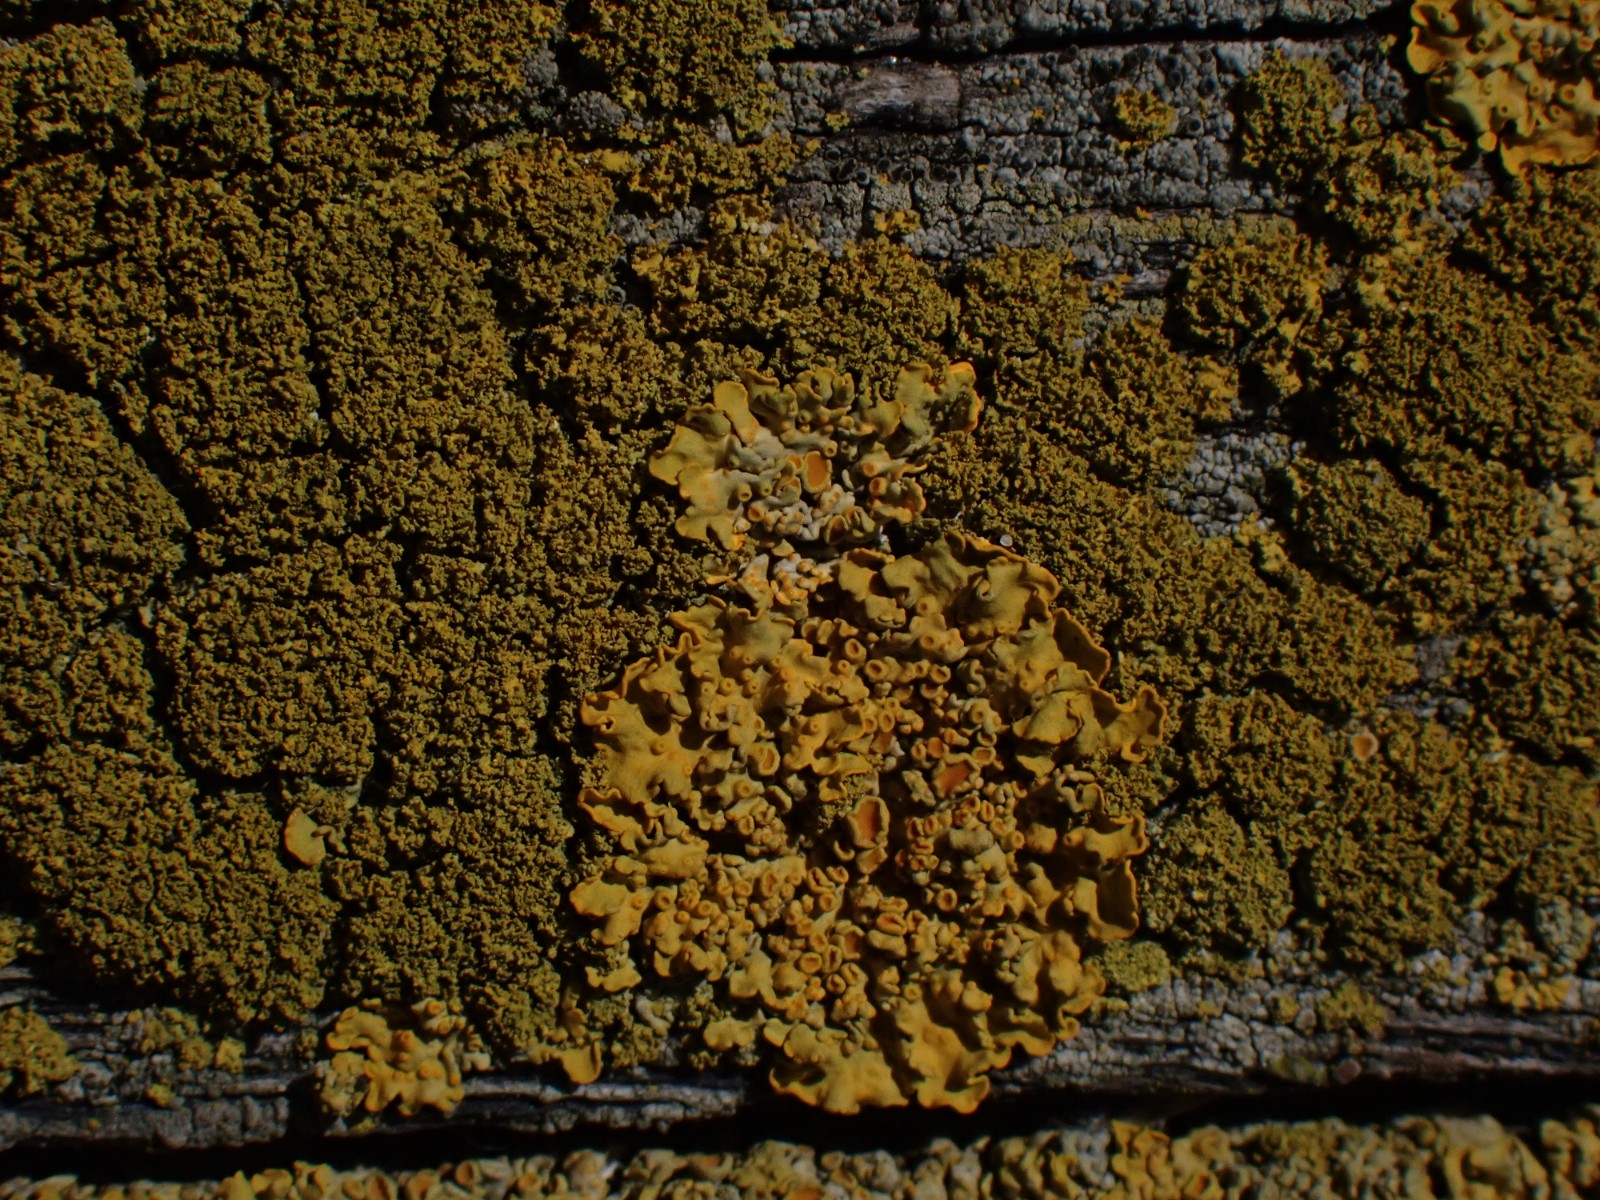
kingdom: Fungi
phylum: Ascomycota
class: Lecanoromycetes
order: Teloschistales
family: Teloschistaceae
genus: Polycauliona
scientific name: Polycauliona candelaria
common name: tue-orangelav
